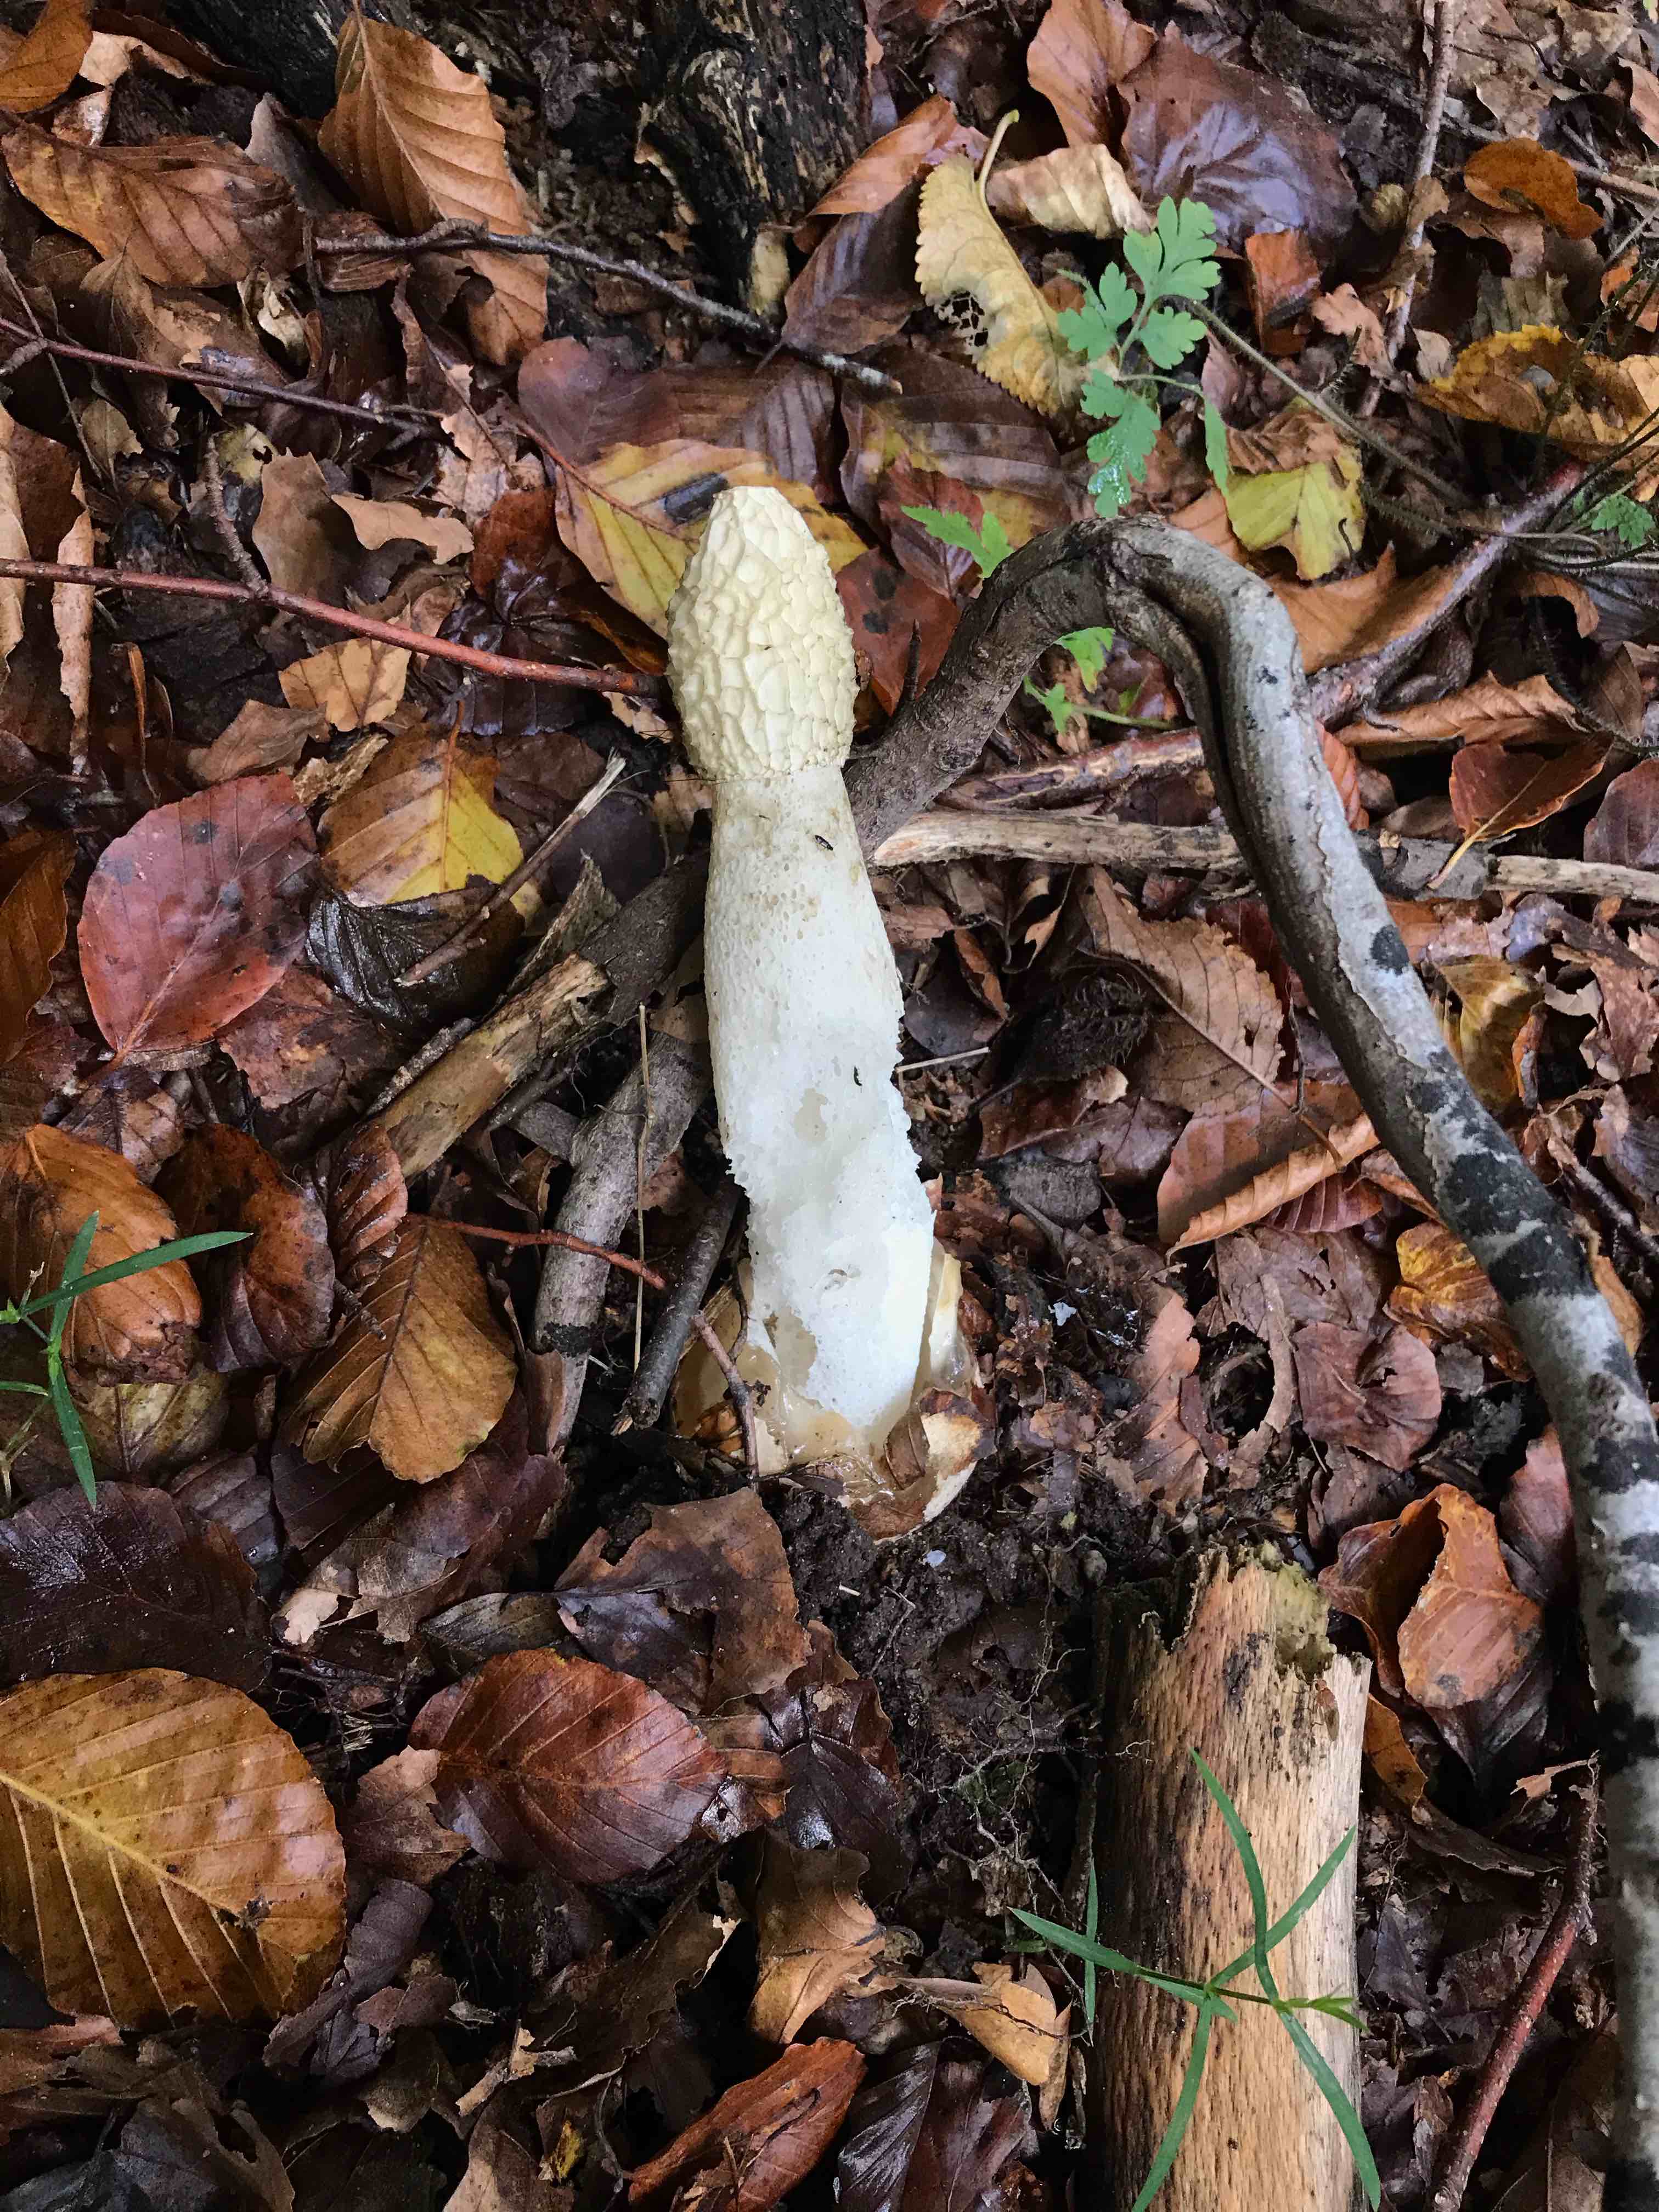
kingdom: Fungi
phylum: Basidiomycota
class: Agaricomycetes
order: Phallales
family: Phallaceae
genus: Phallus
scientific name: Phallus impudicus
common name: almindelig stinksvamp
